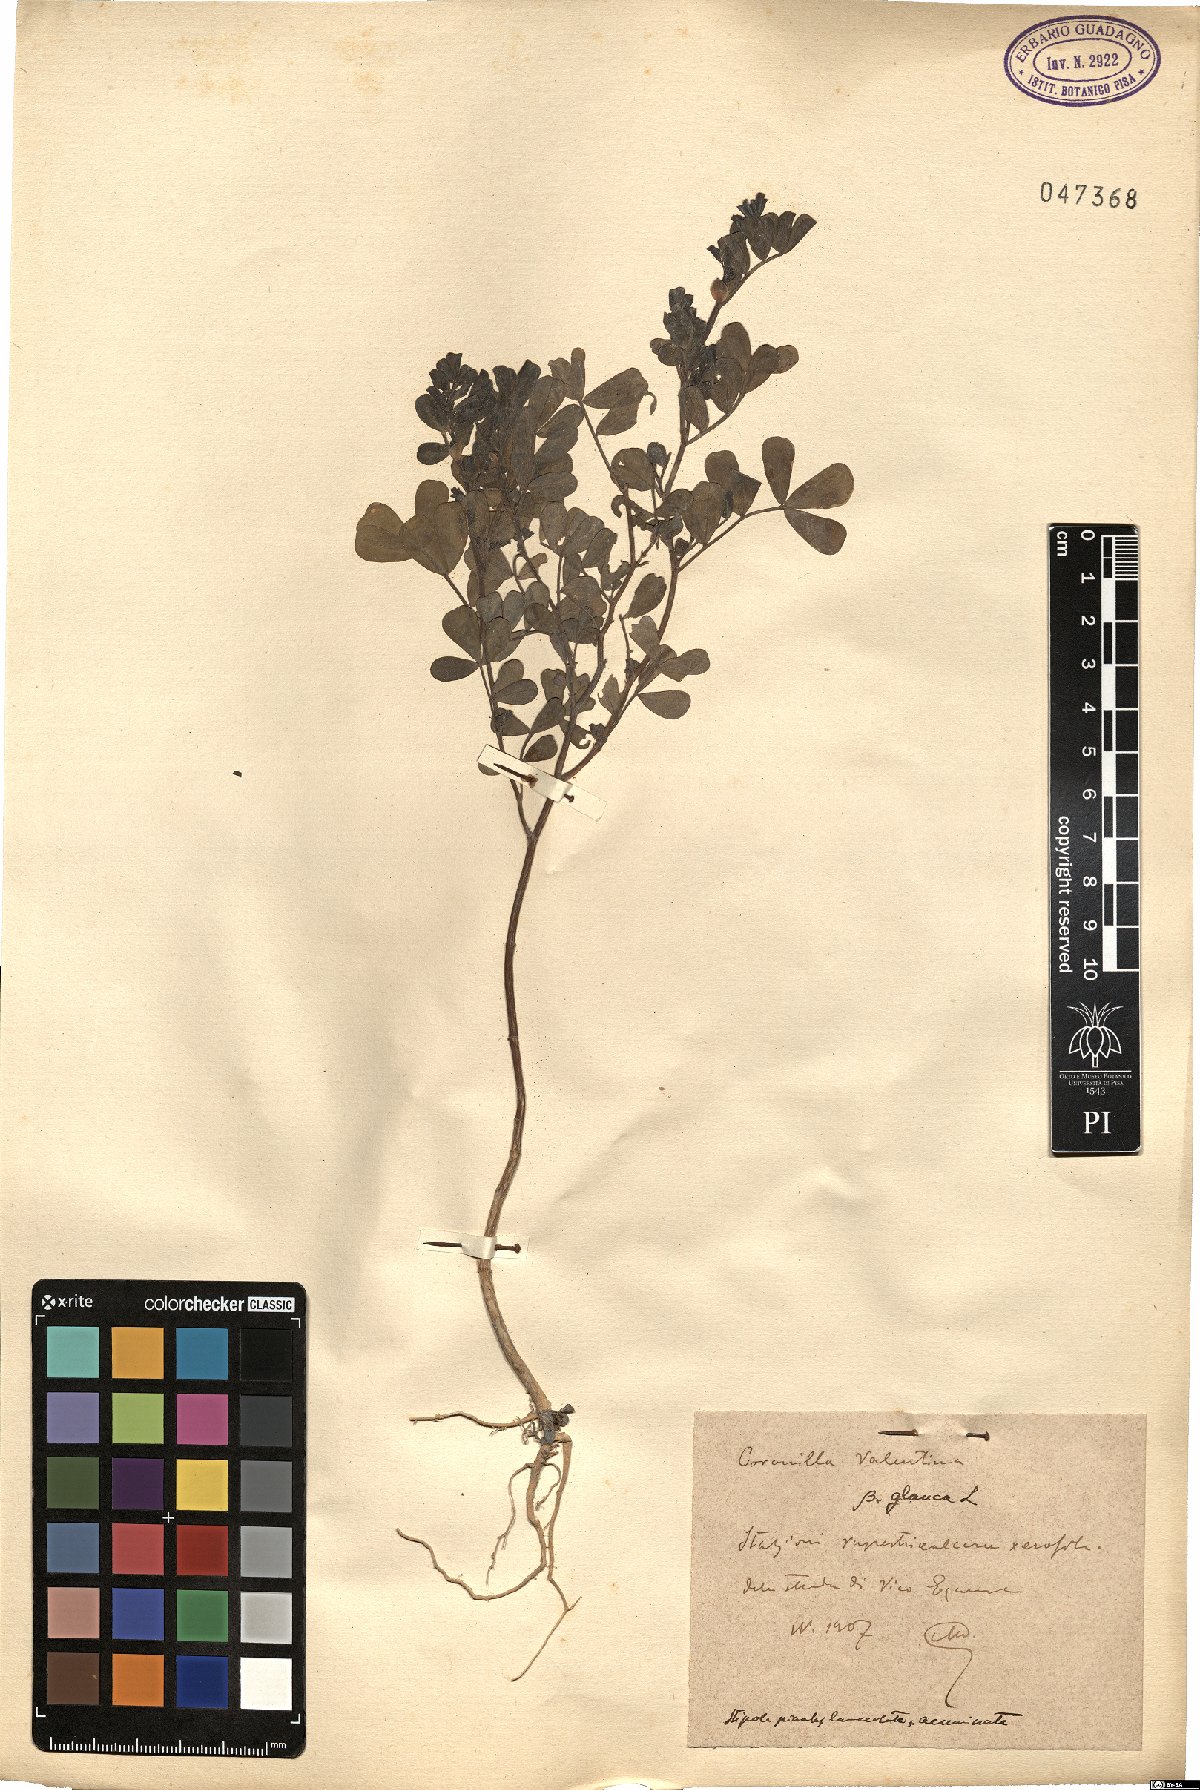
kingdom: Plantae
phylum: Tracheophyta
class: Magnoliopsida
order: Fabales
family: Fabaceae
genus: Coronilla
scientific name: Coronilla valentina
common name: Shrubby scorpion-vetch
